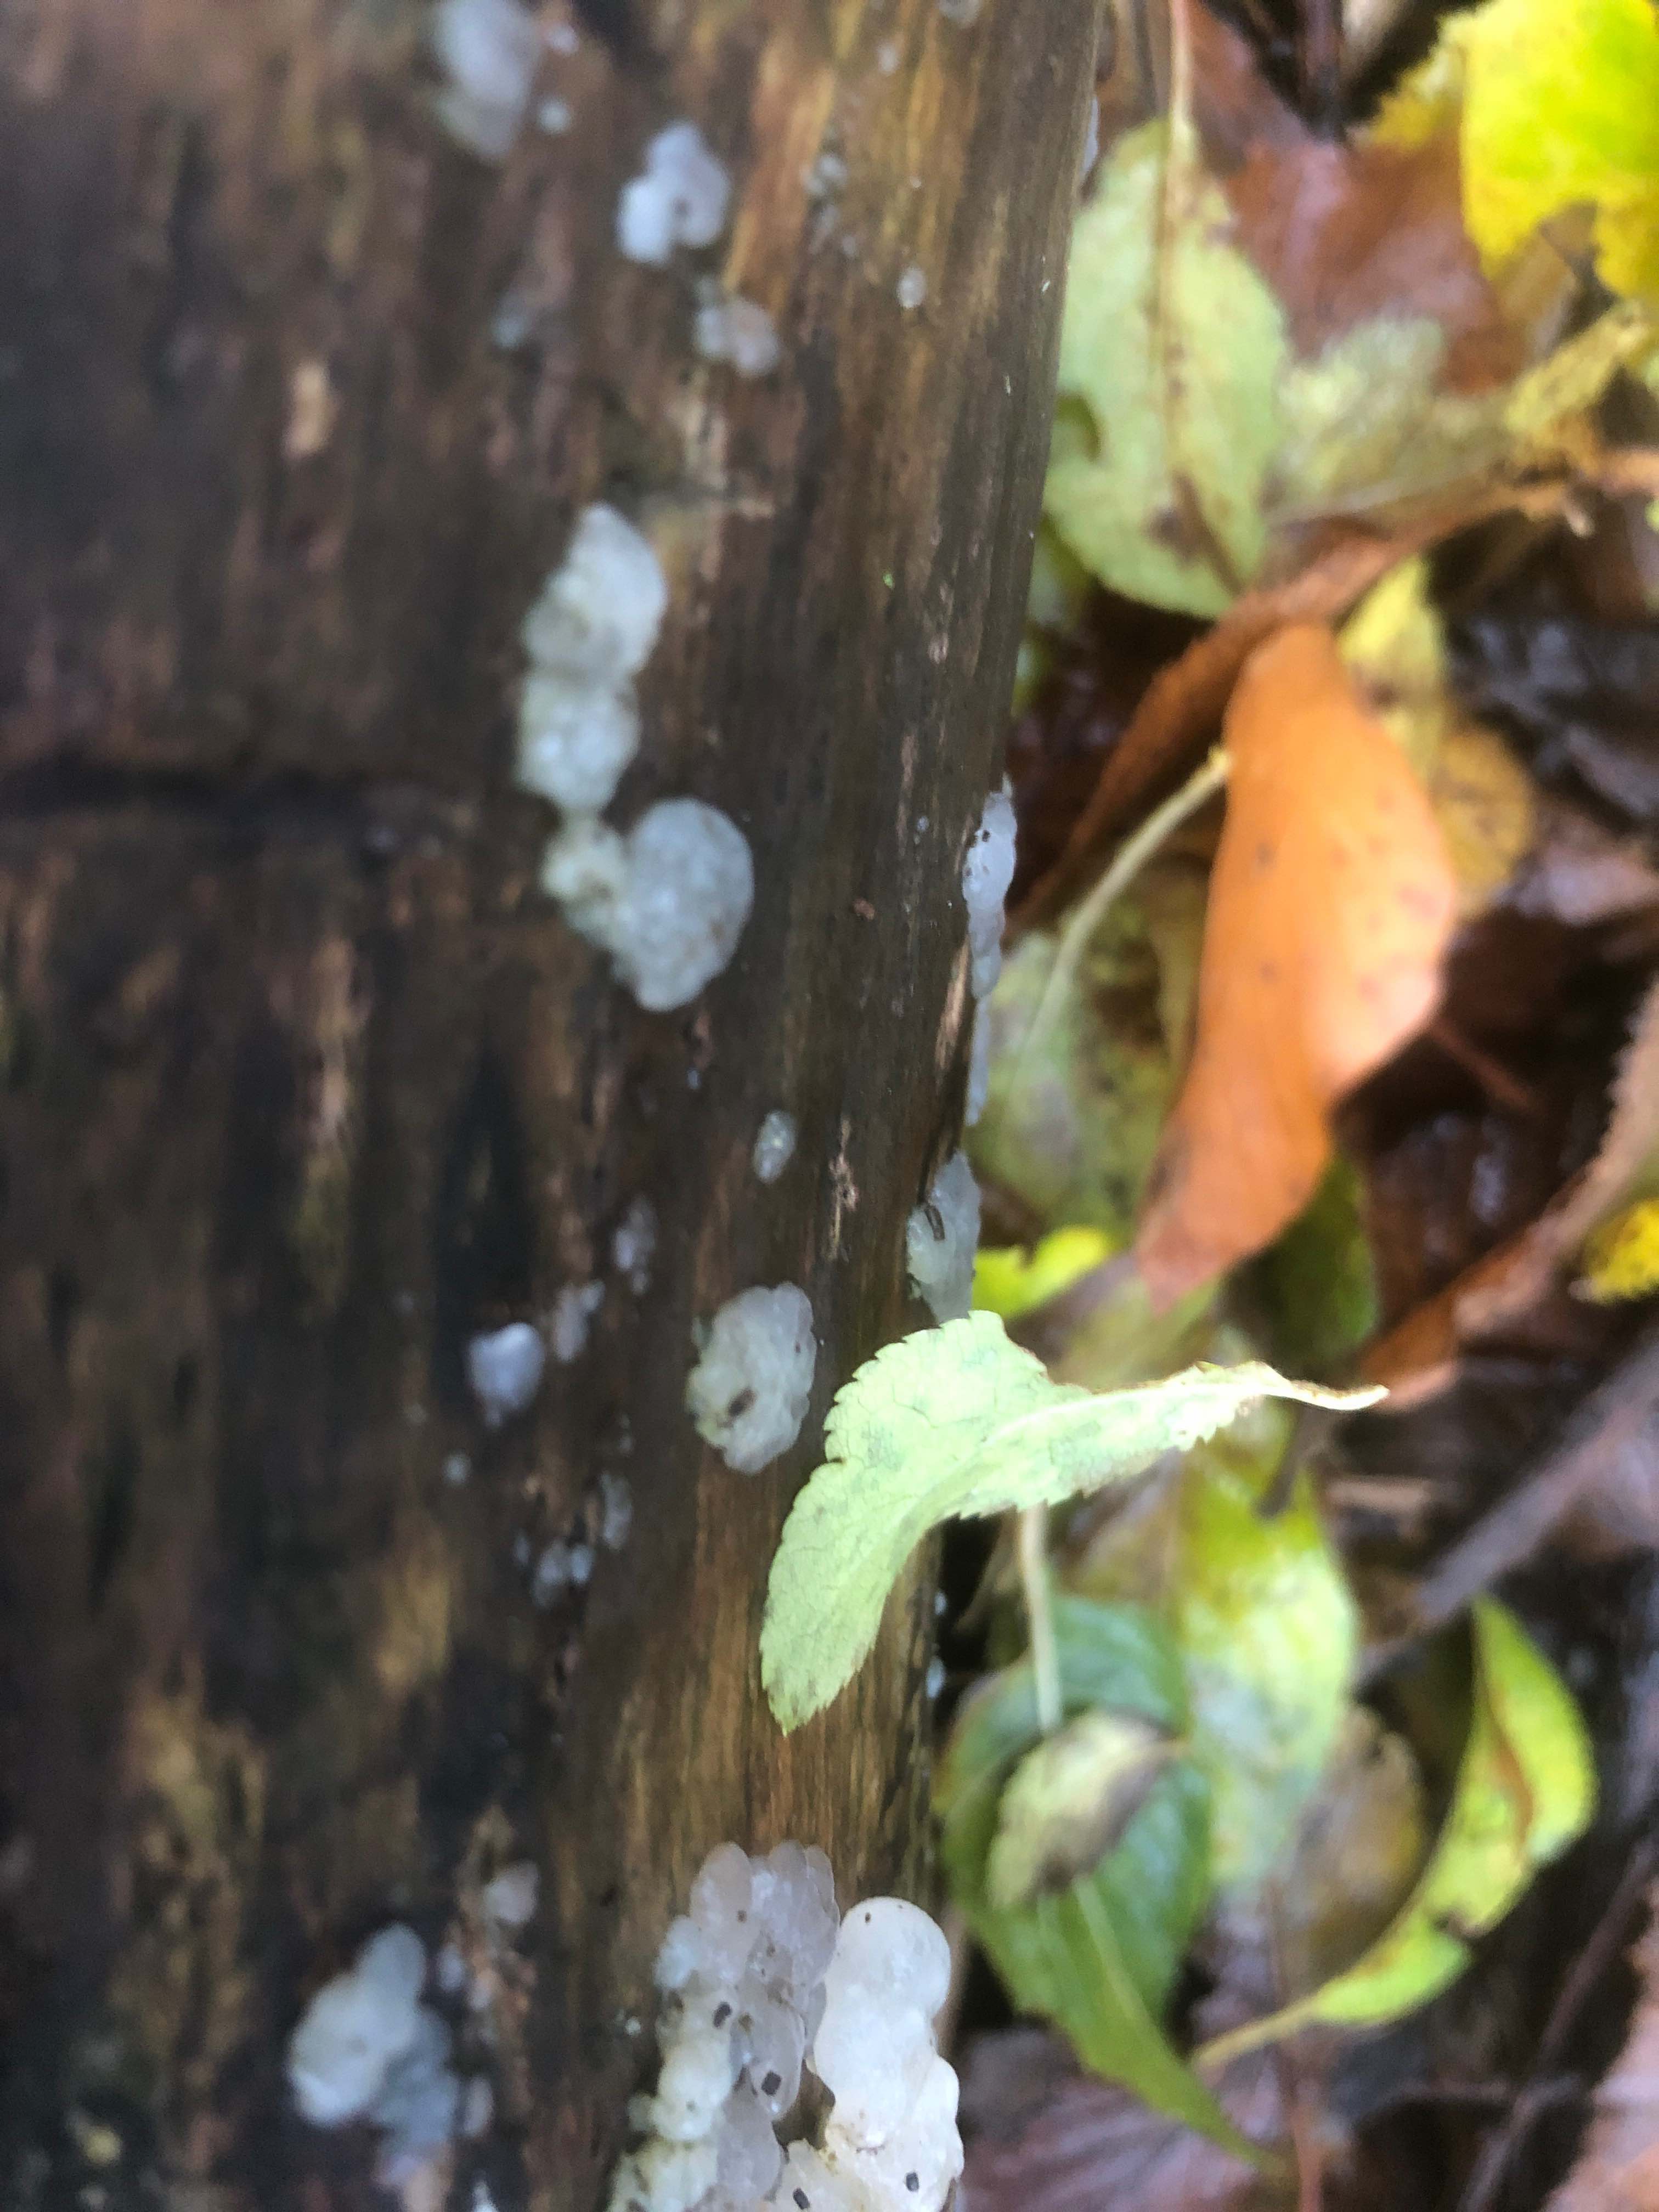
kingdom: Fungi
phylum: Basidiomycota
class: Agaricomycetes
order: Auriculariales
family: Hyaloriaceae
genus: Myxarium
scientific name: Myxarium nucleatum
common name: klar bævretop
